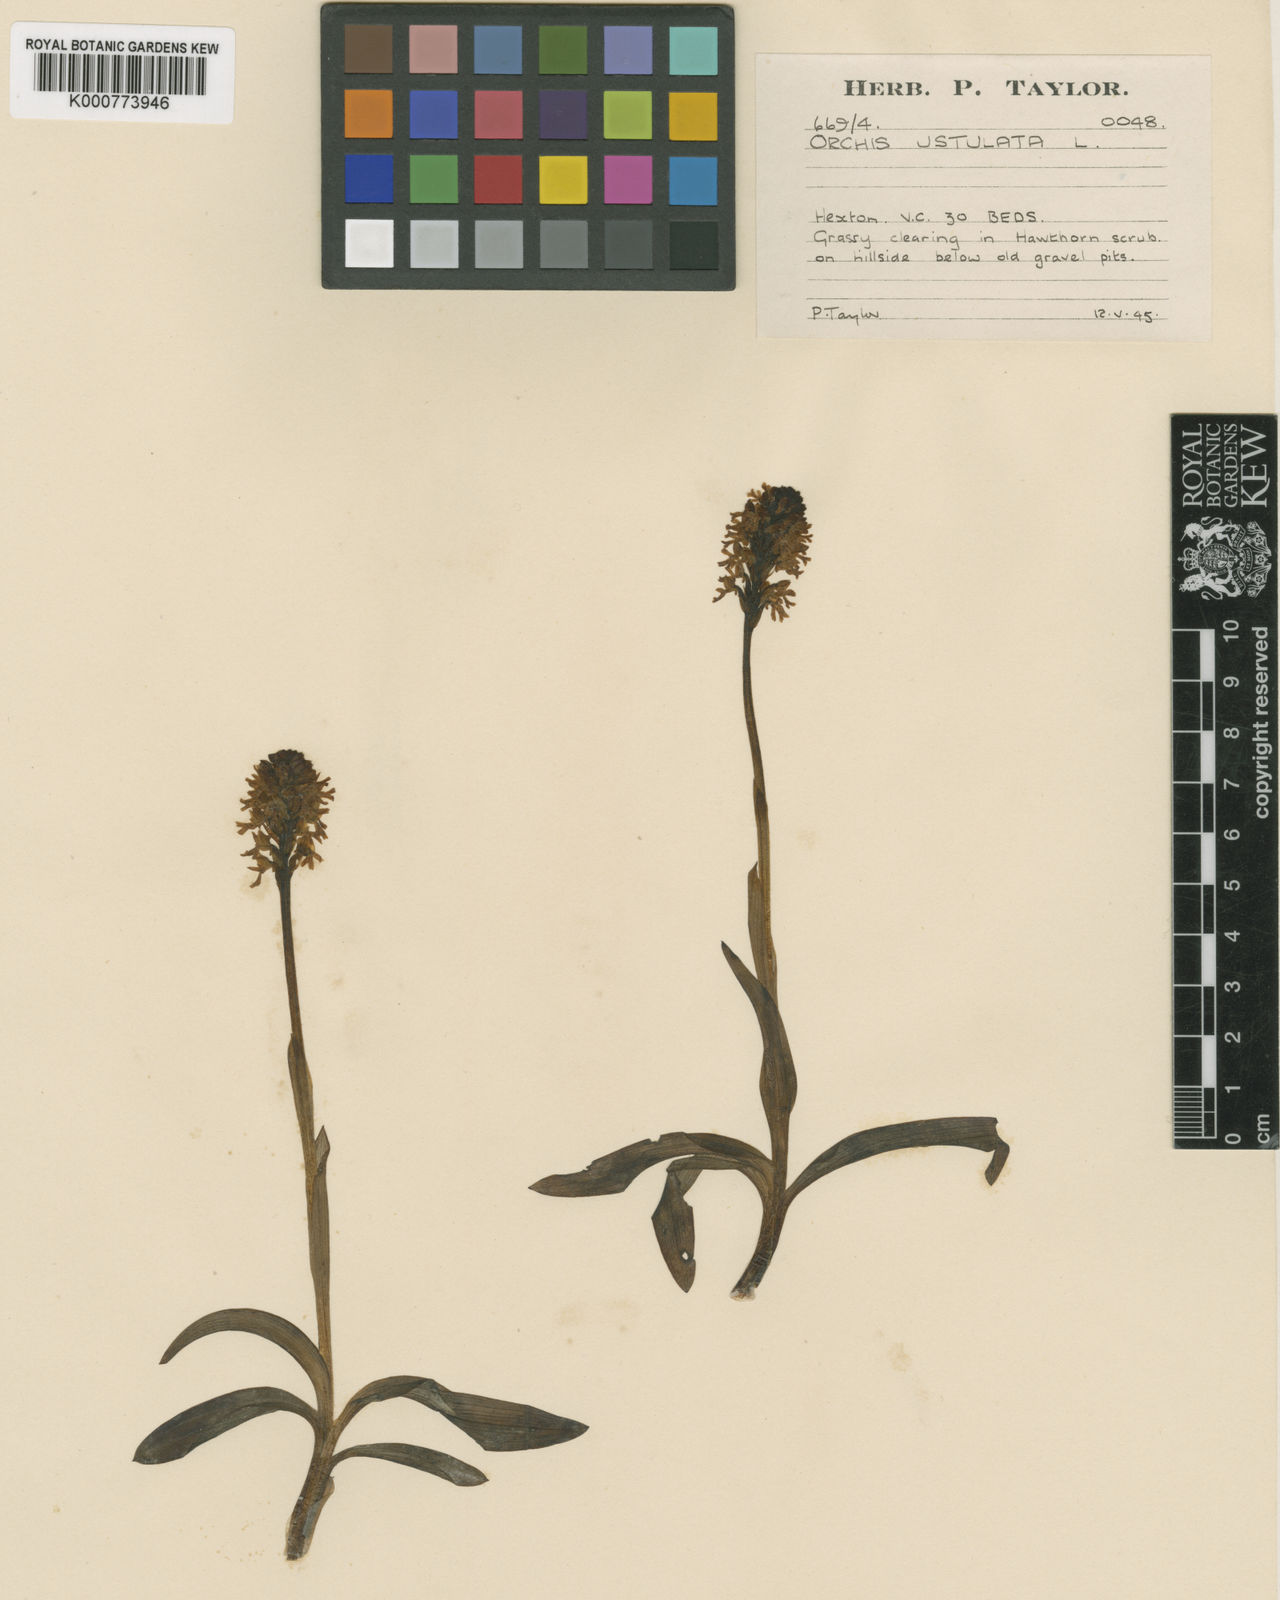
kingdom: Plantae
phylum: Tracheophyta
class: Liliopsida
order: Asparagales
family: Orchidaceae
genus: Neotinea
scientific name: Neotinea ustulata
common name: Burnt orchid
